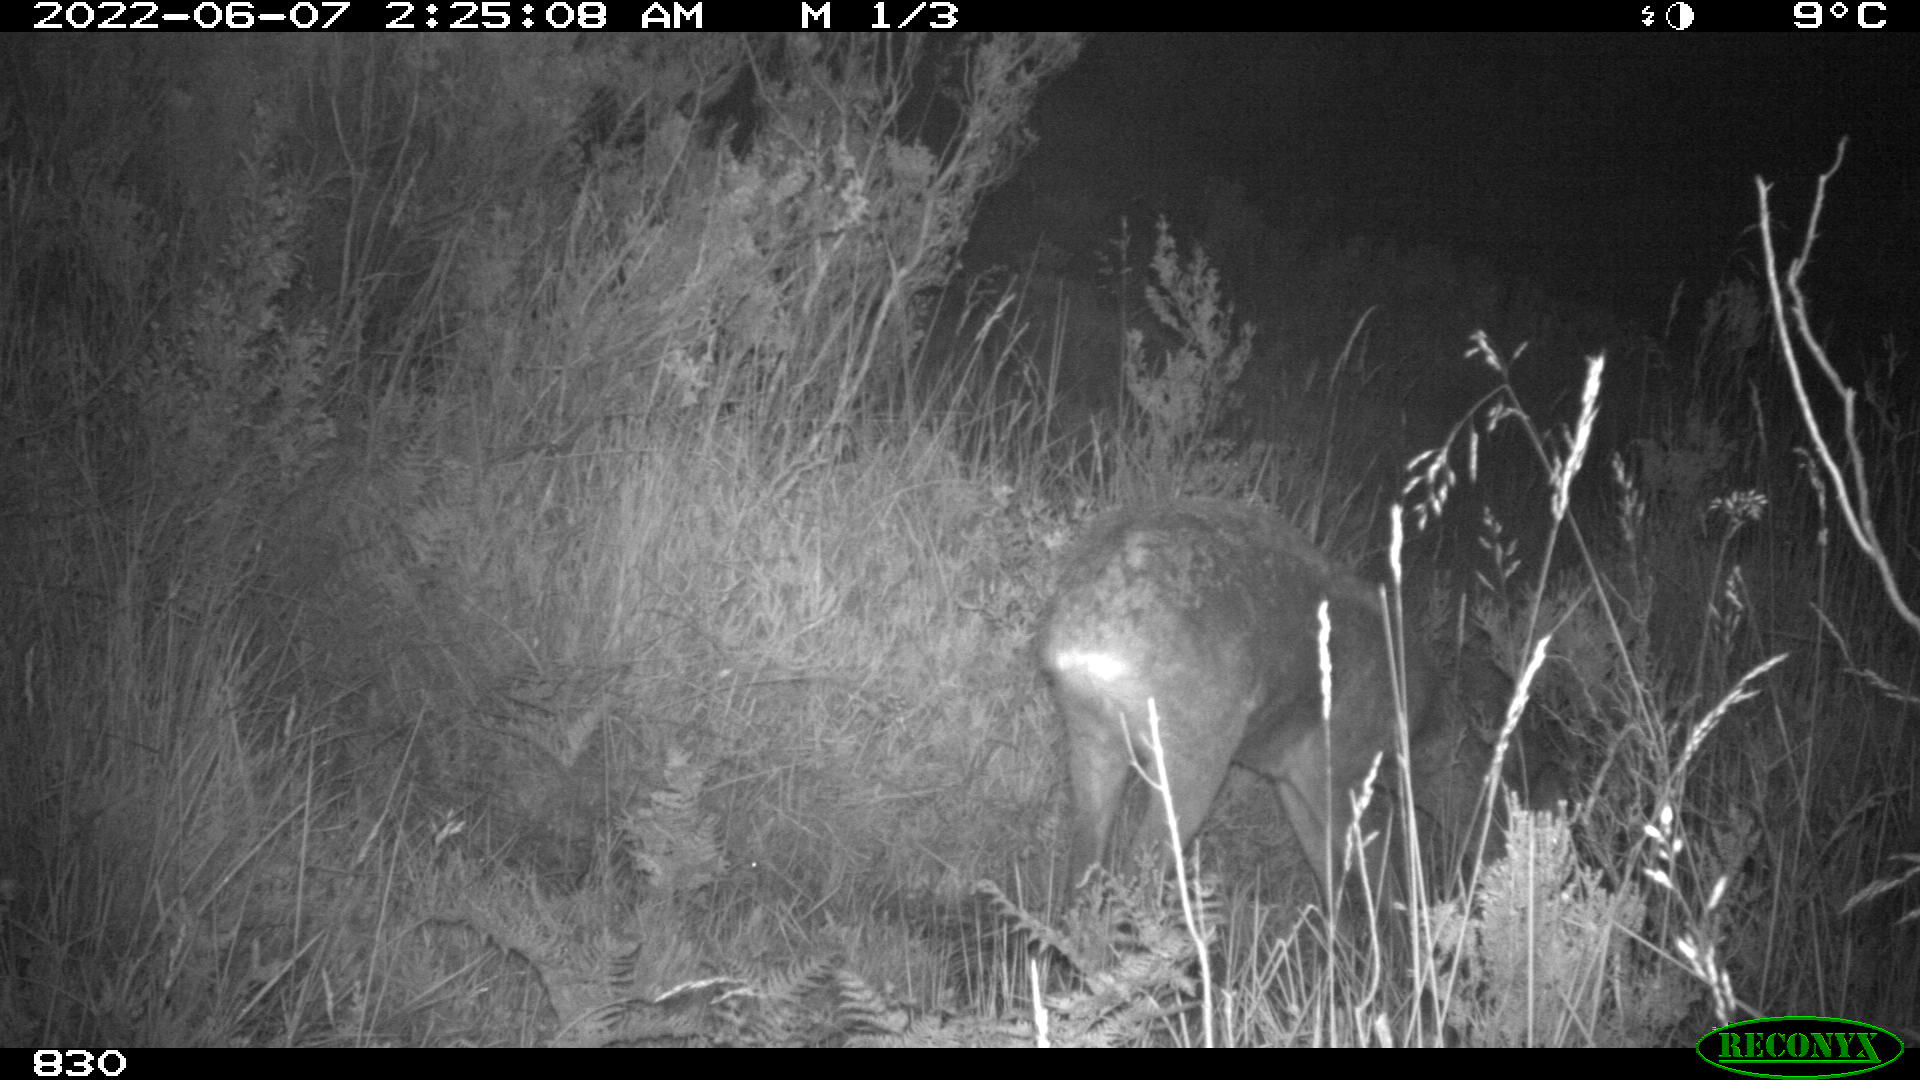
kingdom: Animalia
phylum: Chordata
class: Mammalia
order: Artiodactyla
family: Cervidae
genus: Capreolus
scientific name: Capreolus capreolus
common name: Western roe deer
